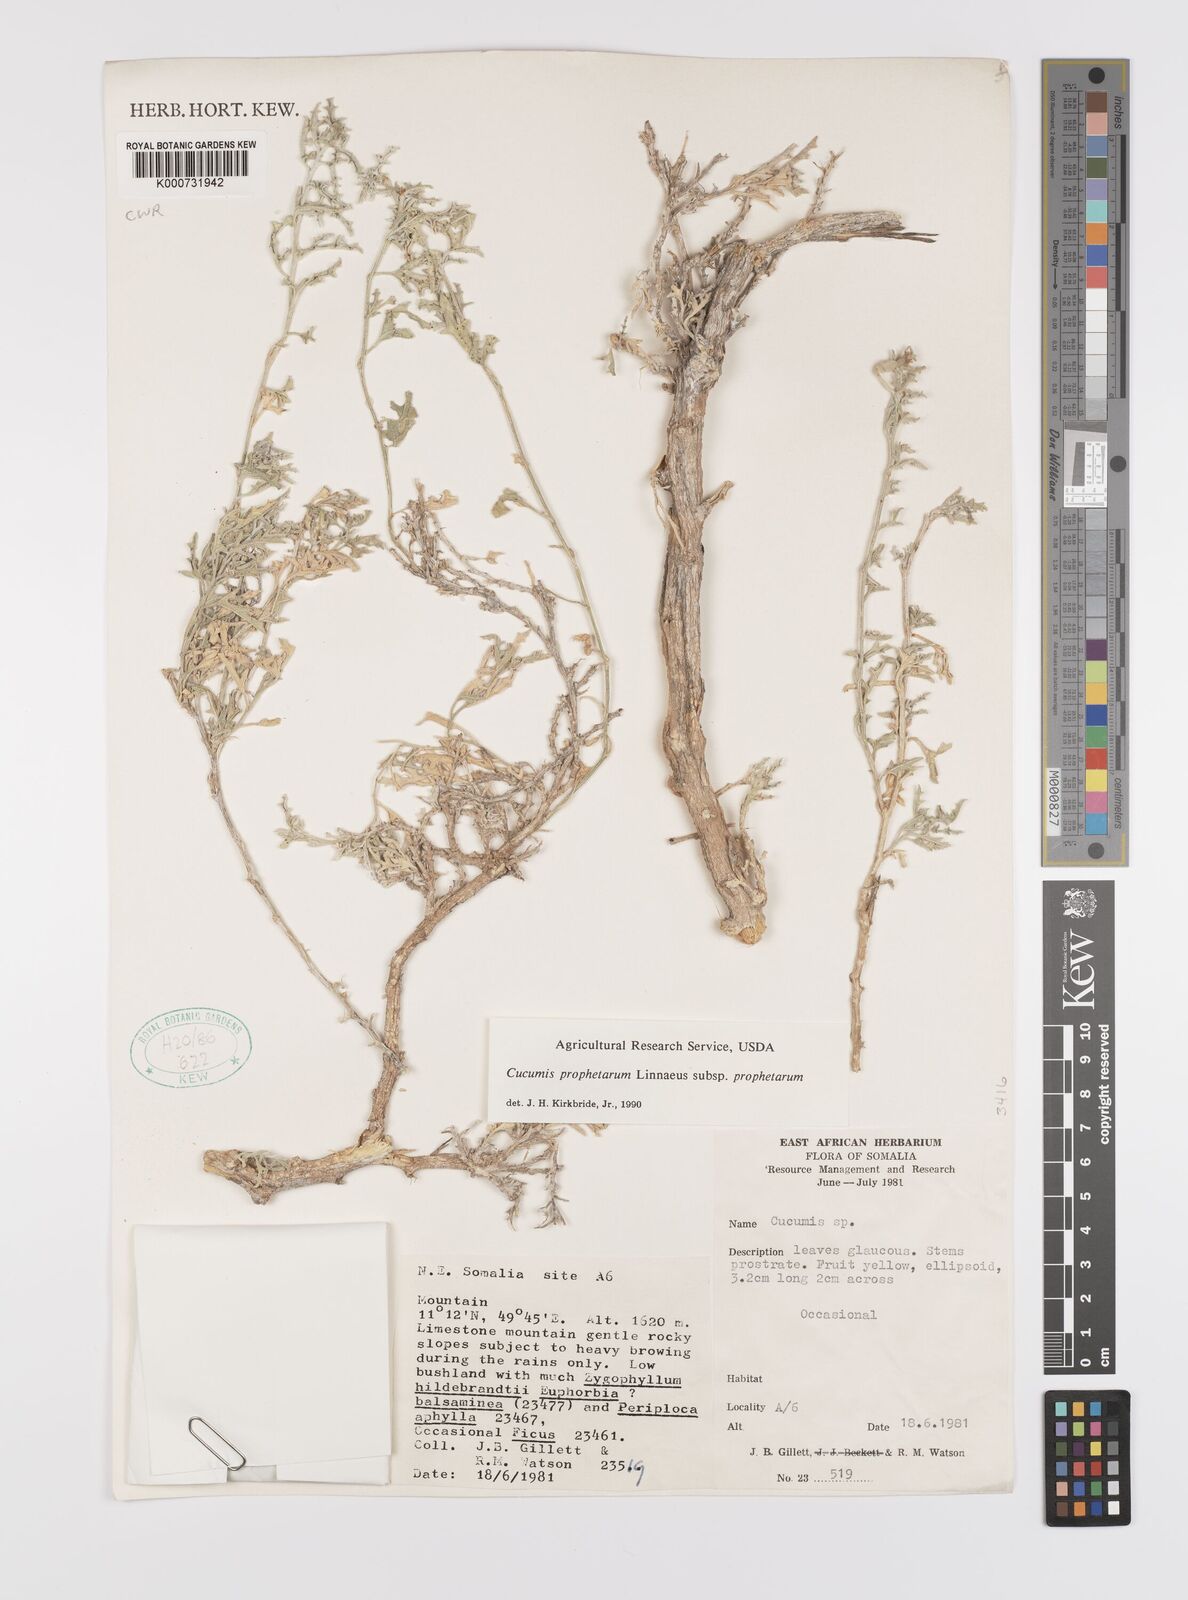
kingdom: Plantae
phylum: Tracheophyta
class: Magnoliopsida
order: Cucurbitales
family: Cucurbitaceae
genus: Cucumis
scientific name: Cucumis prophetarum
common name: Wild cucumber
